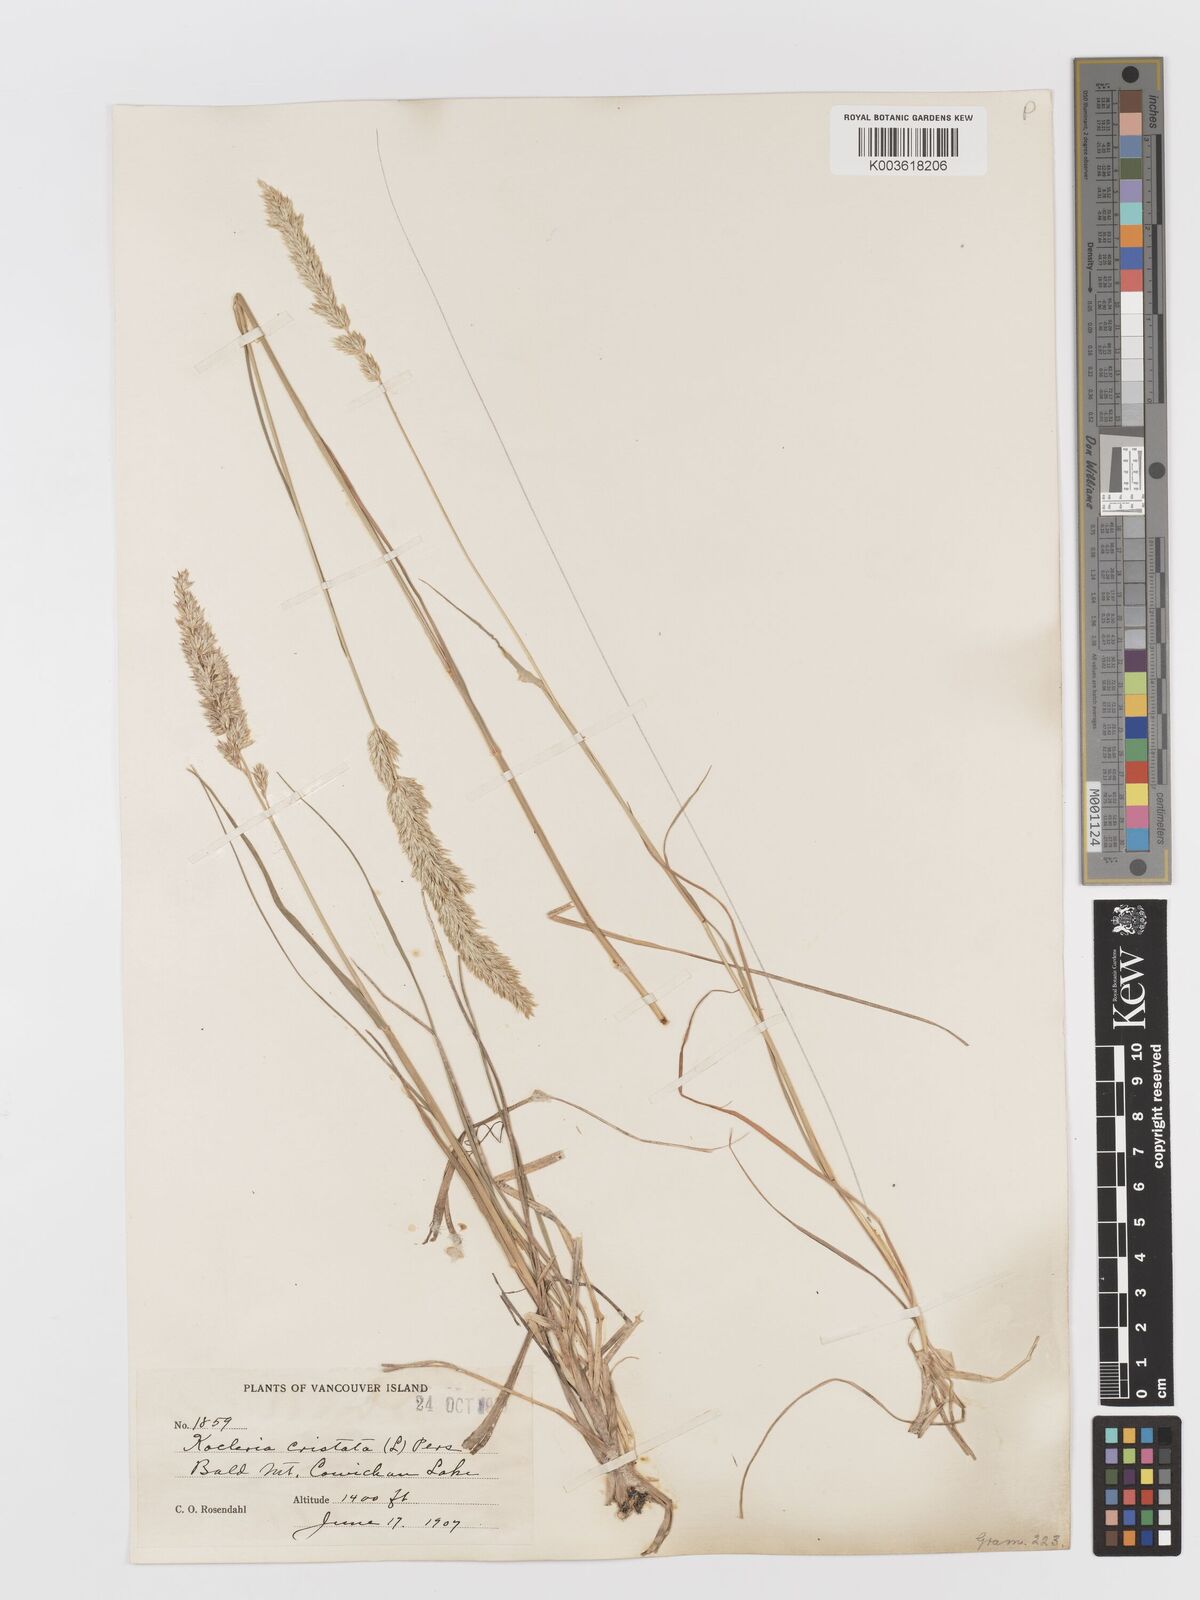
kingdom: Plantae
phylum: Tracheophyta
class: Liliopsida
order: Poales
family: Poaceae
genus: Koeleria
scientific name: Koeleria
